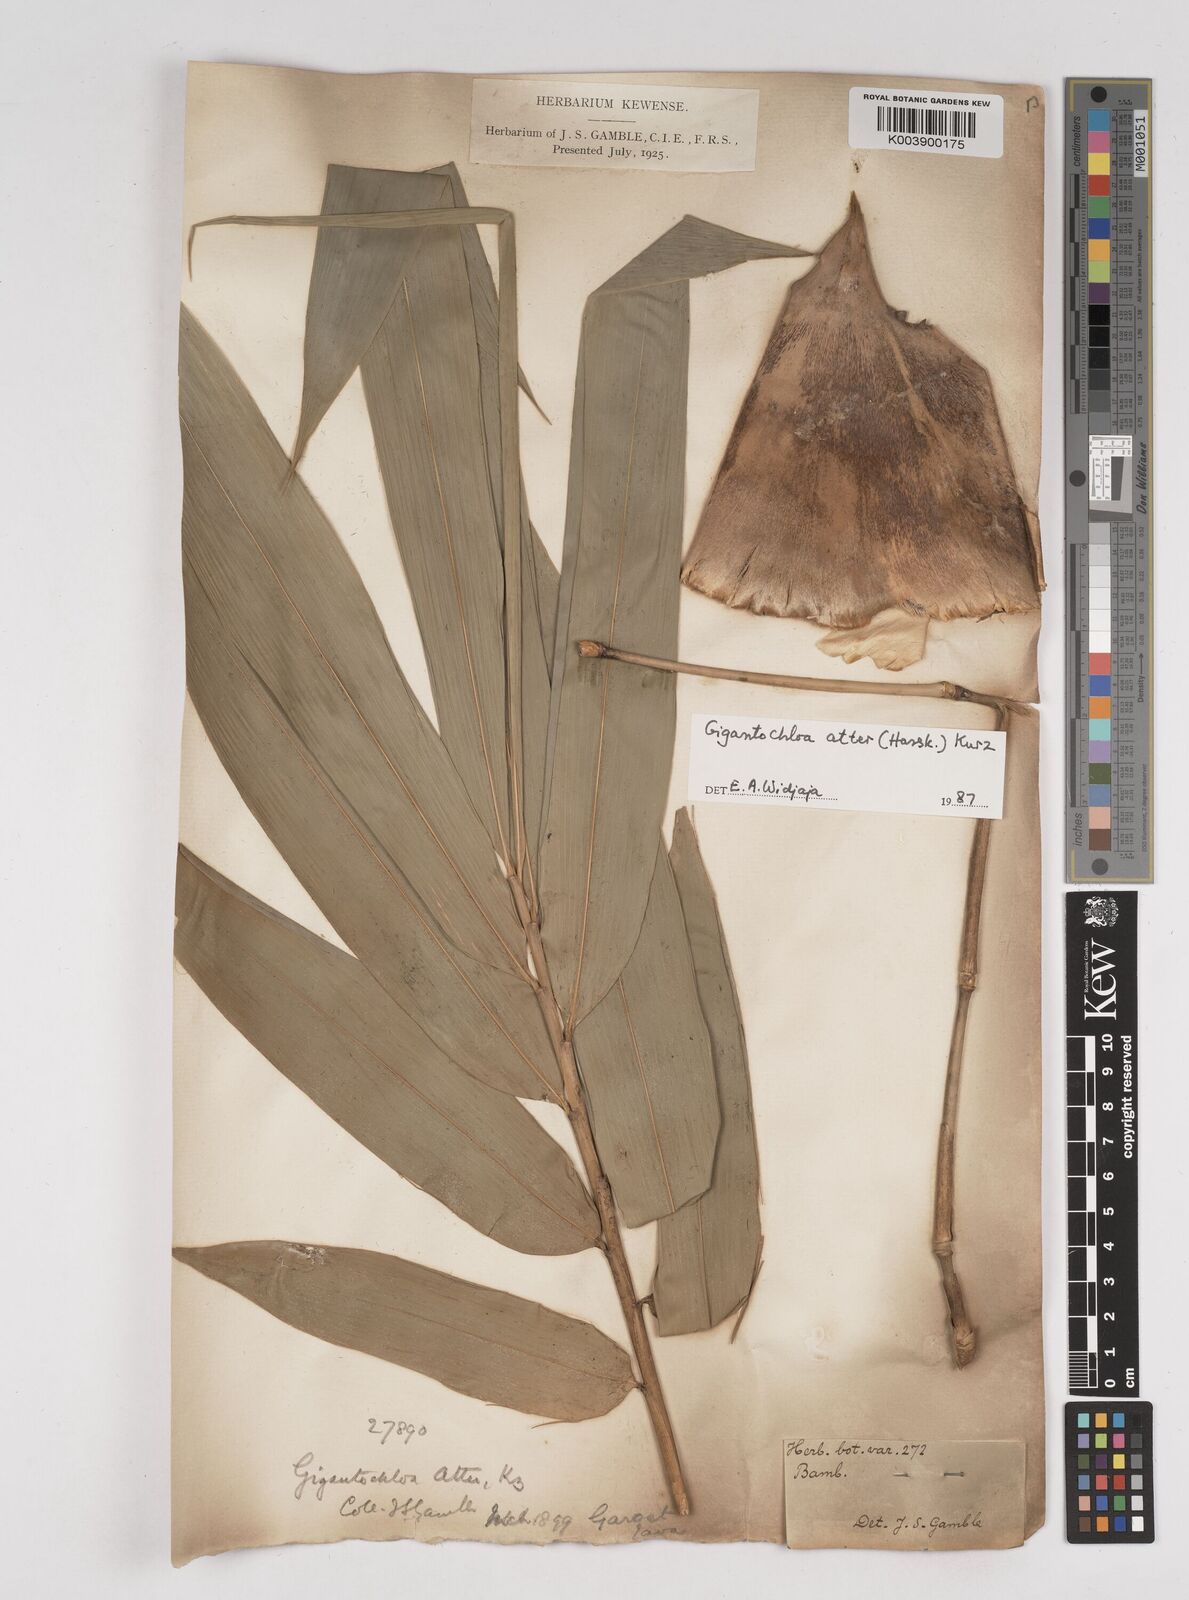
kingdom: Plantae
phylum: Tracheophyta
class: Liliopsida
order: Poales
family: Poaceae
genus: Gigantochloa
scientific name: Gigantochloa atter
